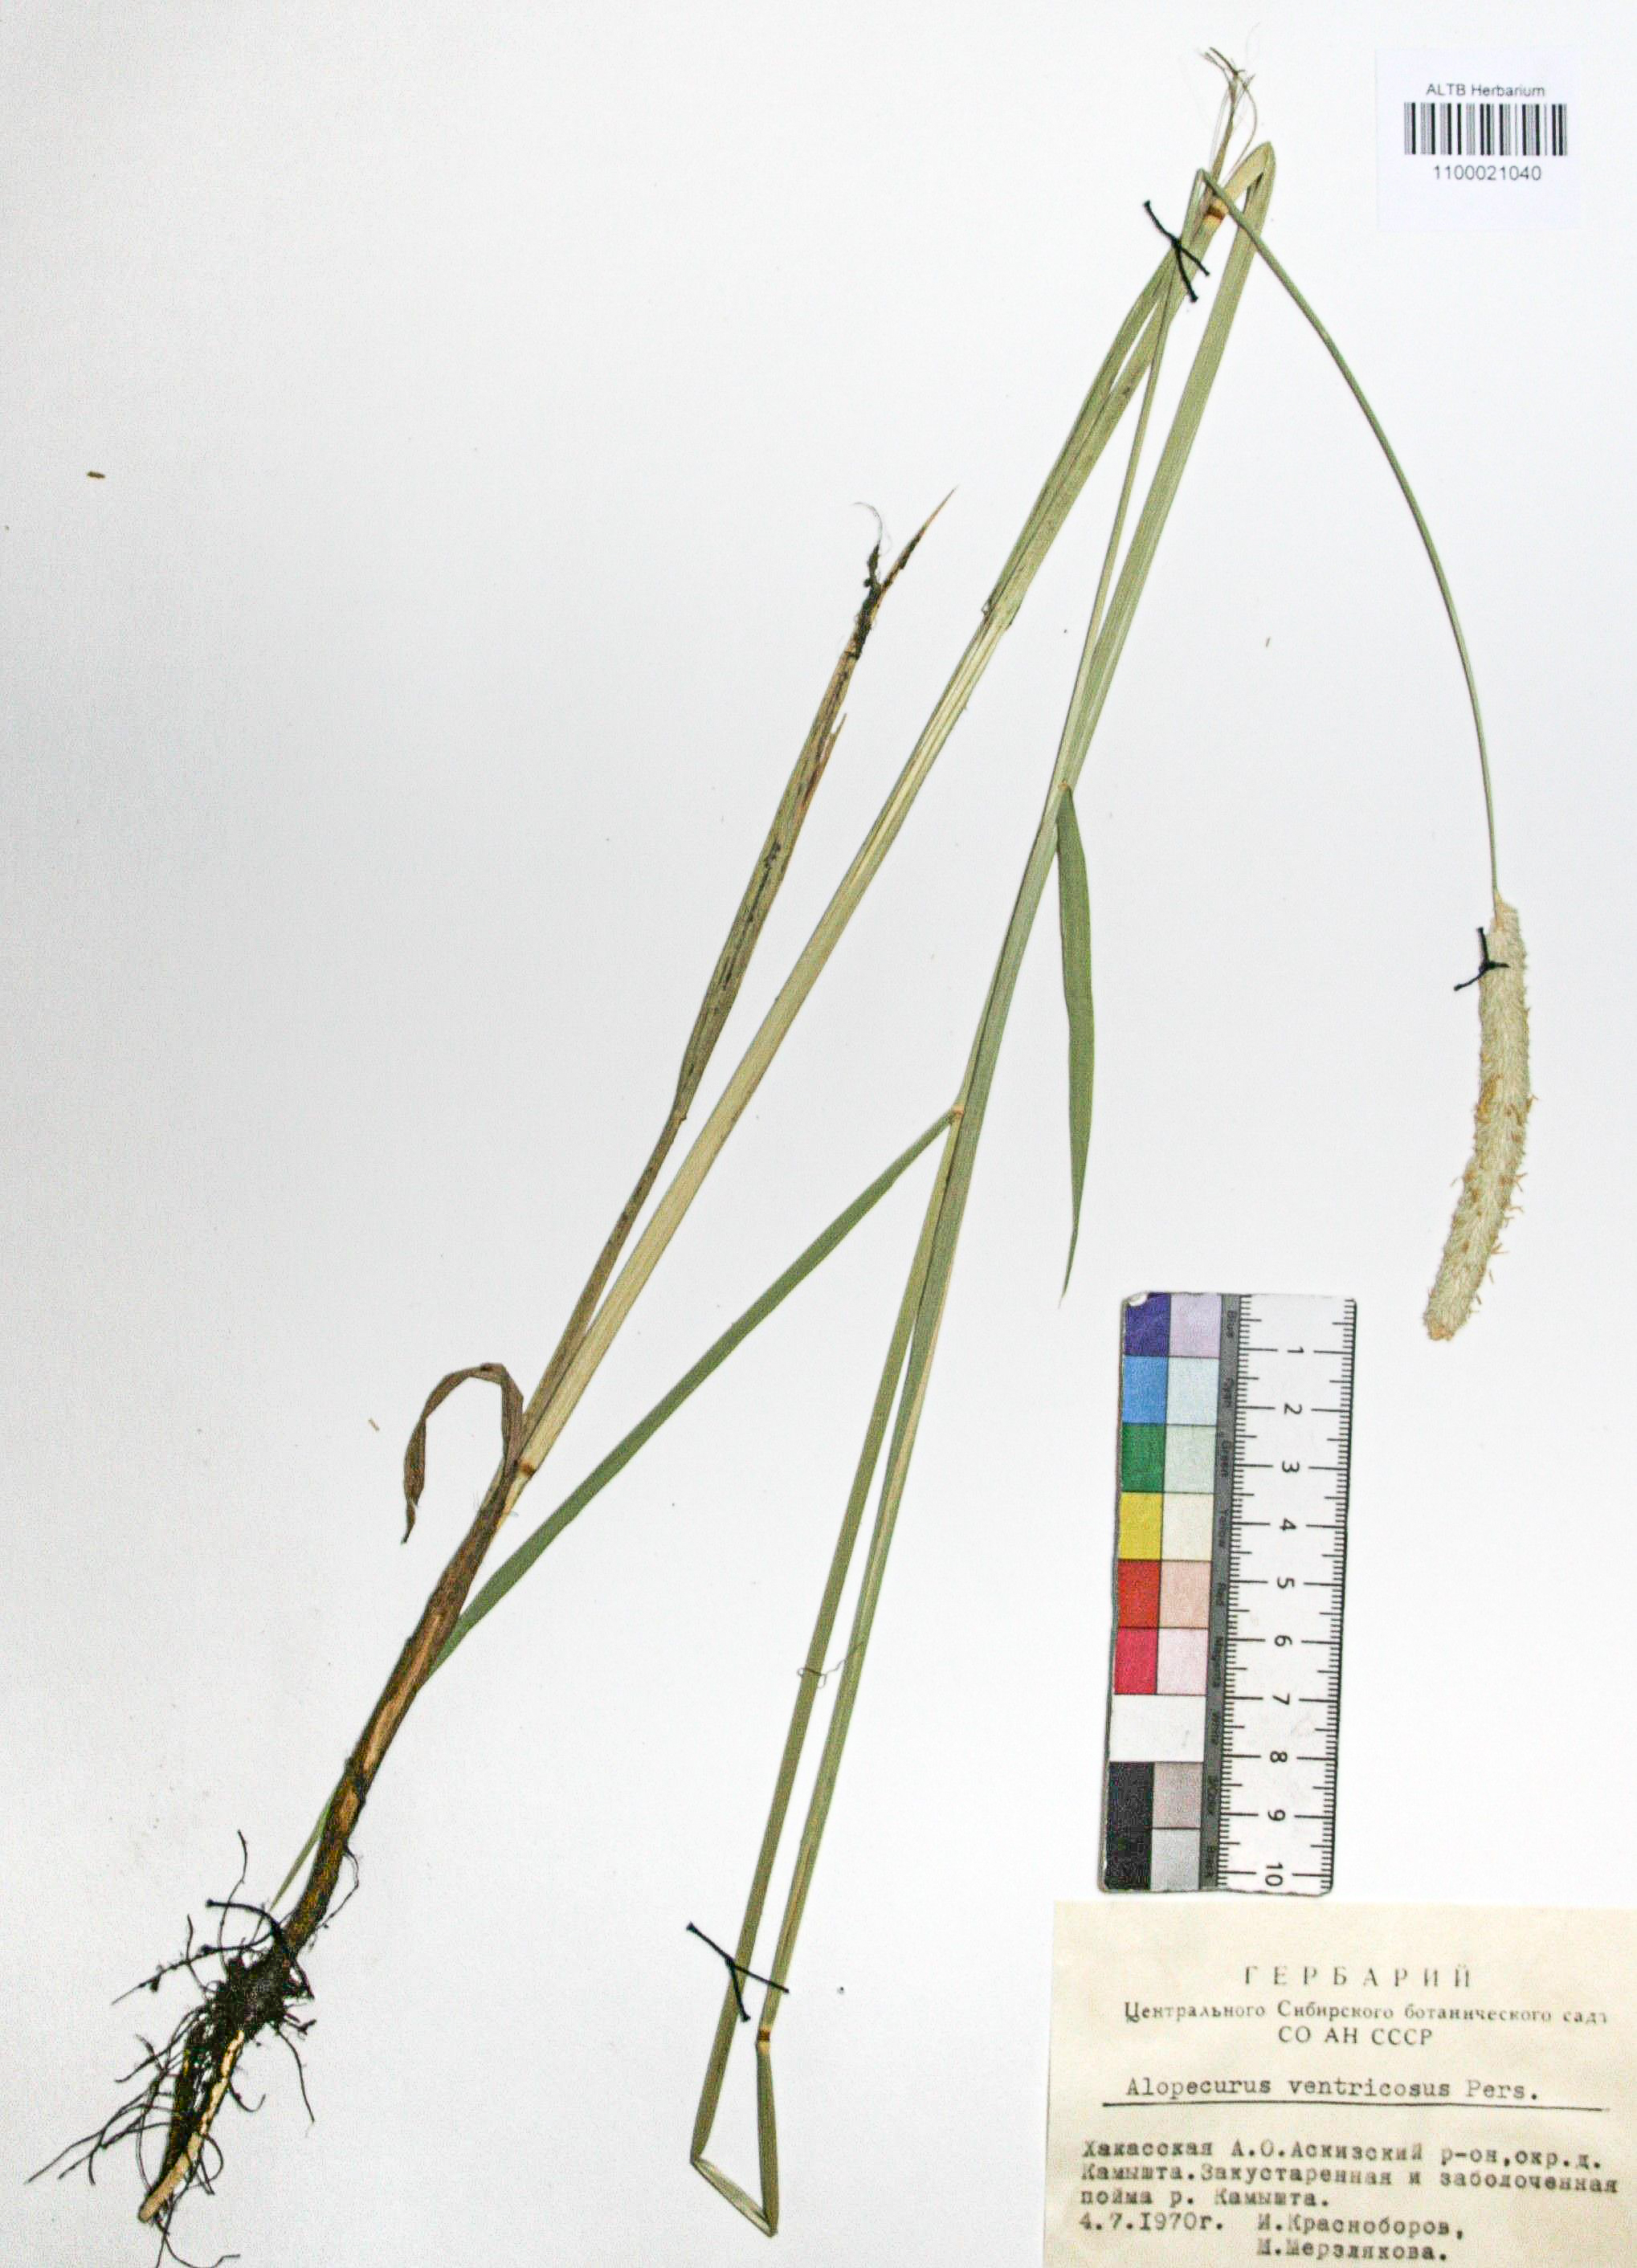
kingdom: Plantae
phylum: Tracheophyta
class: Liliopsida
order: Poales
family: Poaceae
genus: Alopecurus
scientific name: Alopecurus arundinaceus
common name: Creeping meadow foxtail
